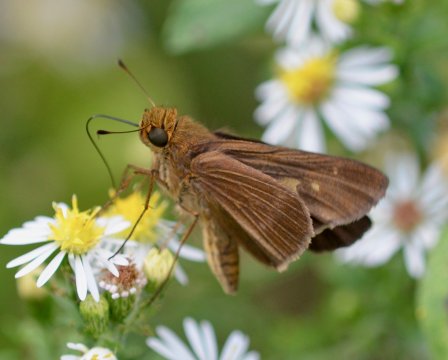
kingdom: Animalia
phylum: Arthropoda
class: Insecta
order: Lepidoptera
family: Hesperiidae
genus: Panoquina
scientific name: Panoquina ocola
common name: Ocola Skipper
